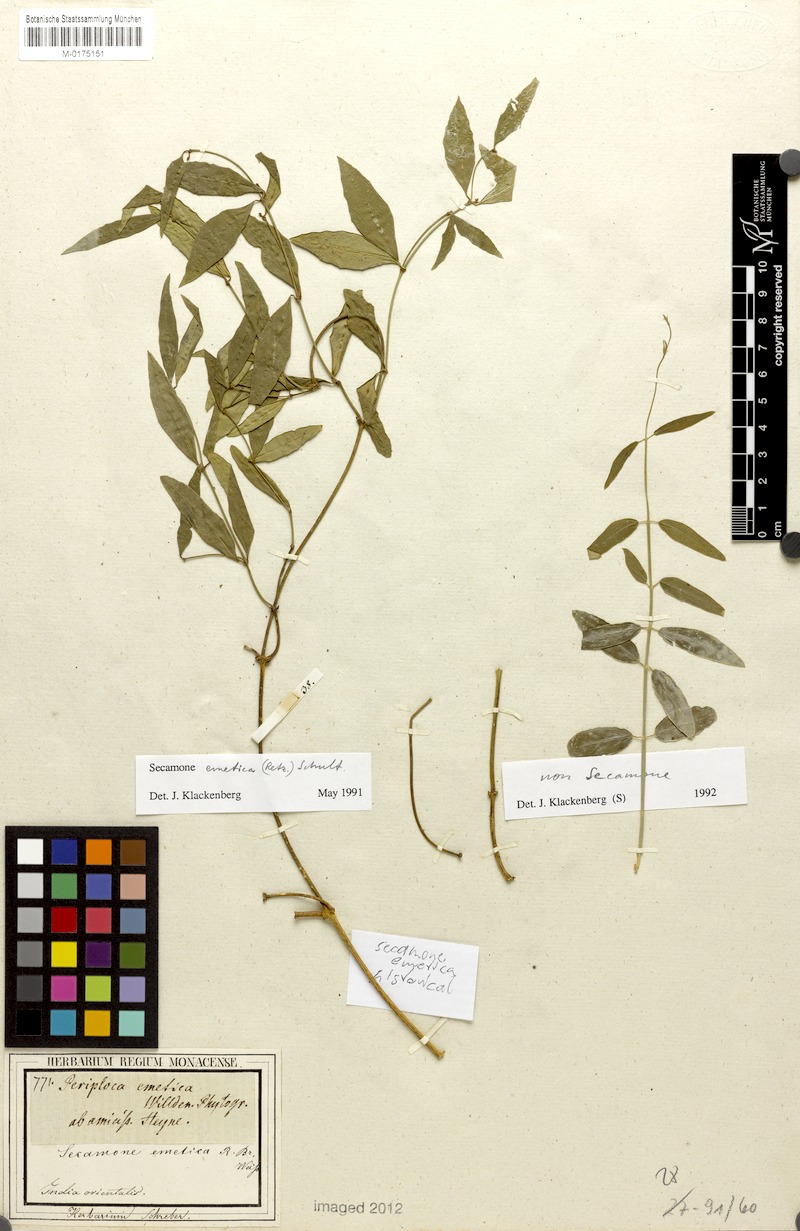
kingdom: Plantae
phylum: Tracheophyta
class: Magnoliopsida
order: Gentianales
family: Apocynaceae
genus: Secamone
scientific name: Secamone emetica
